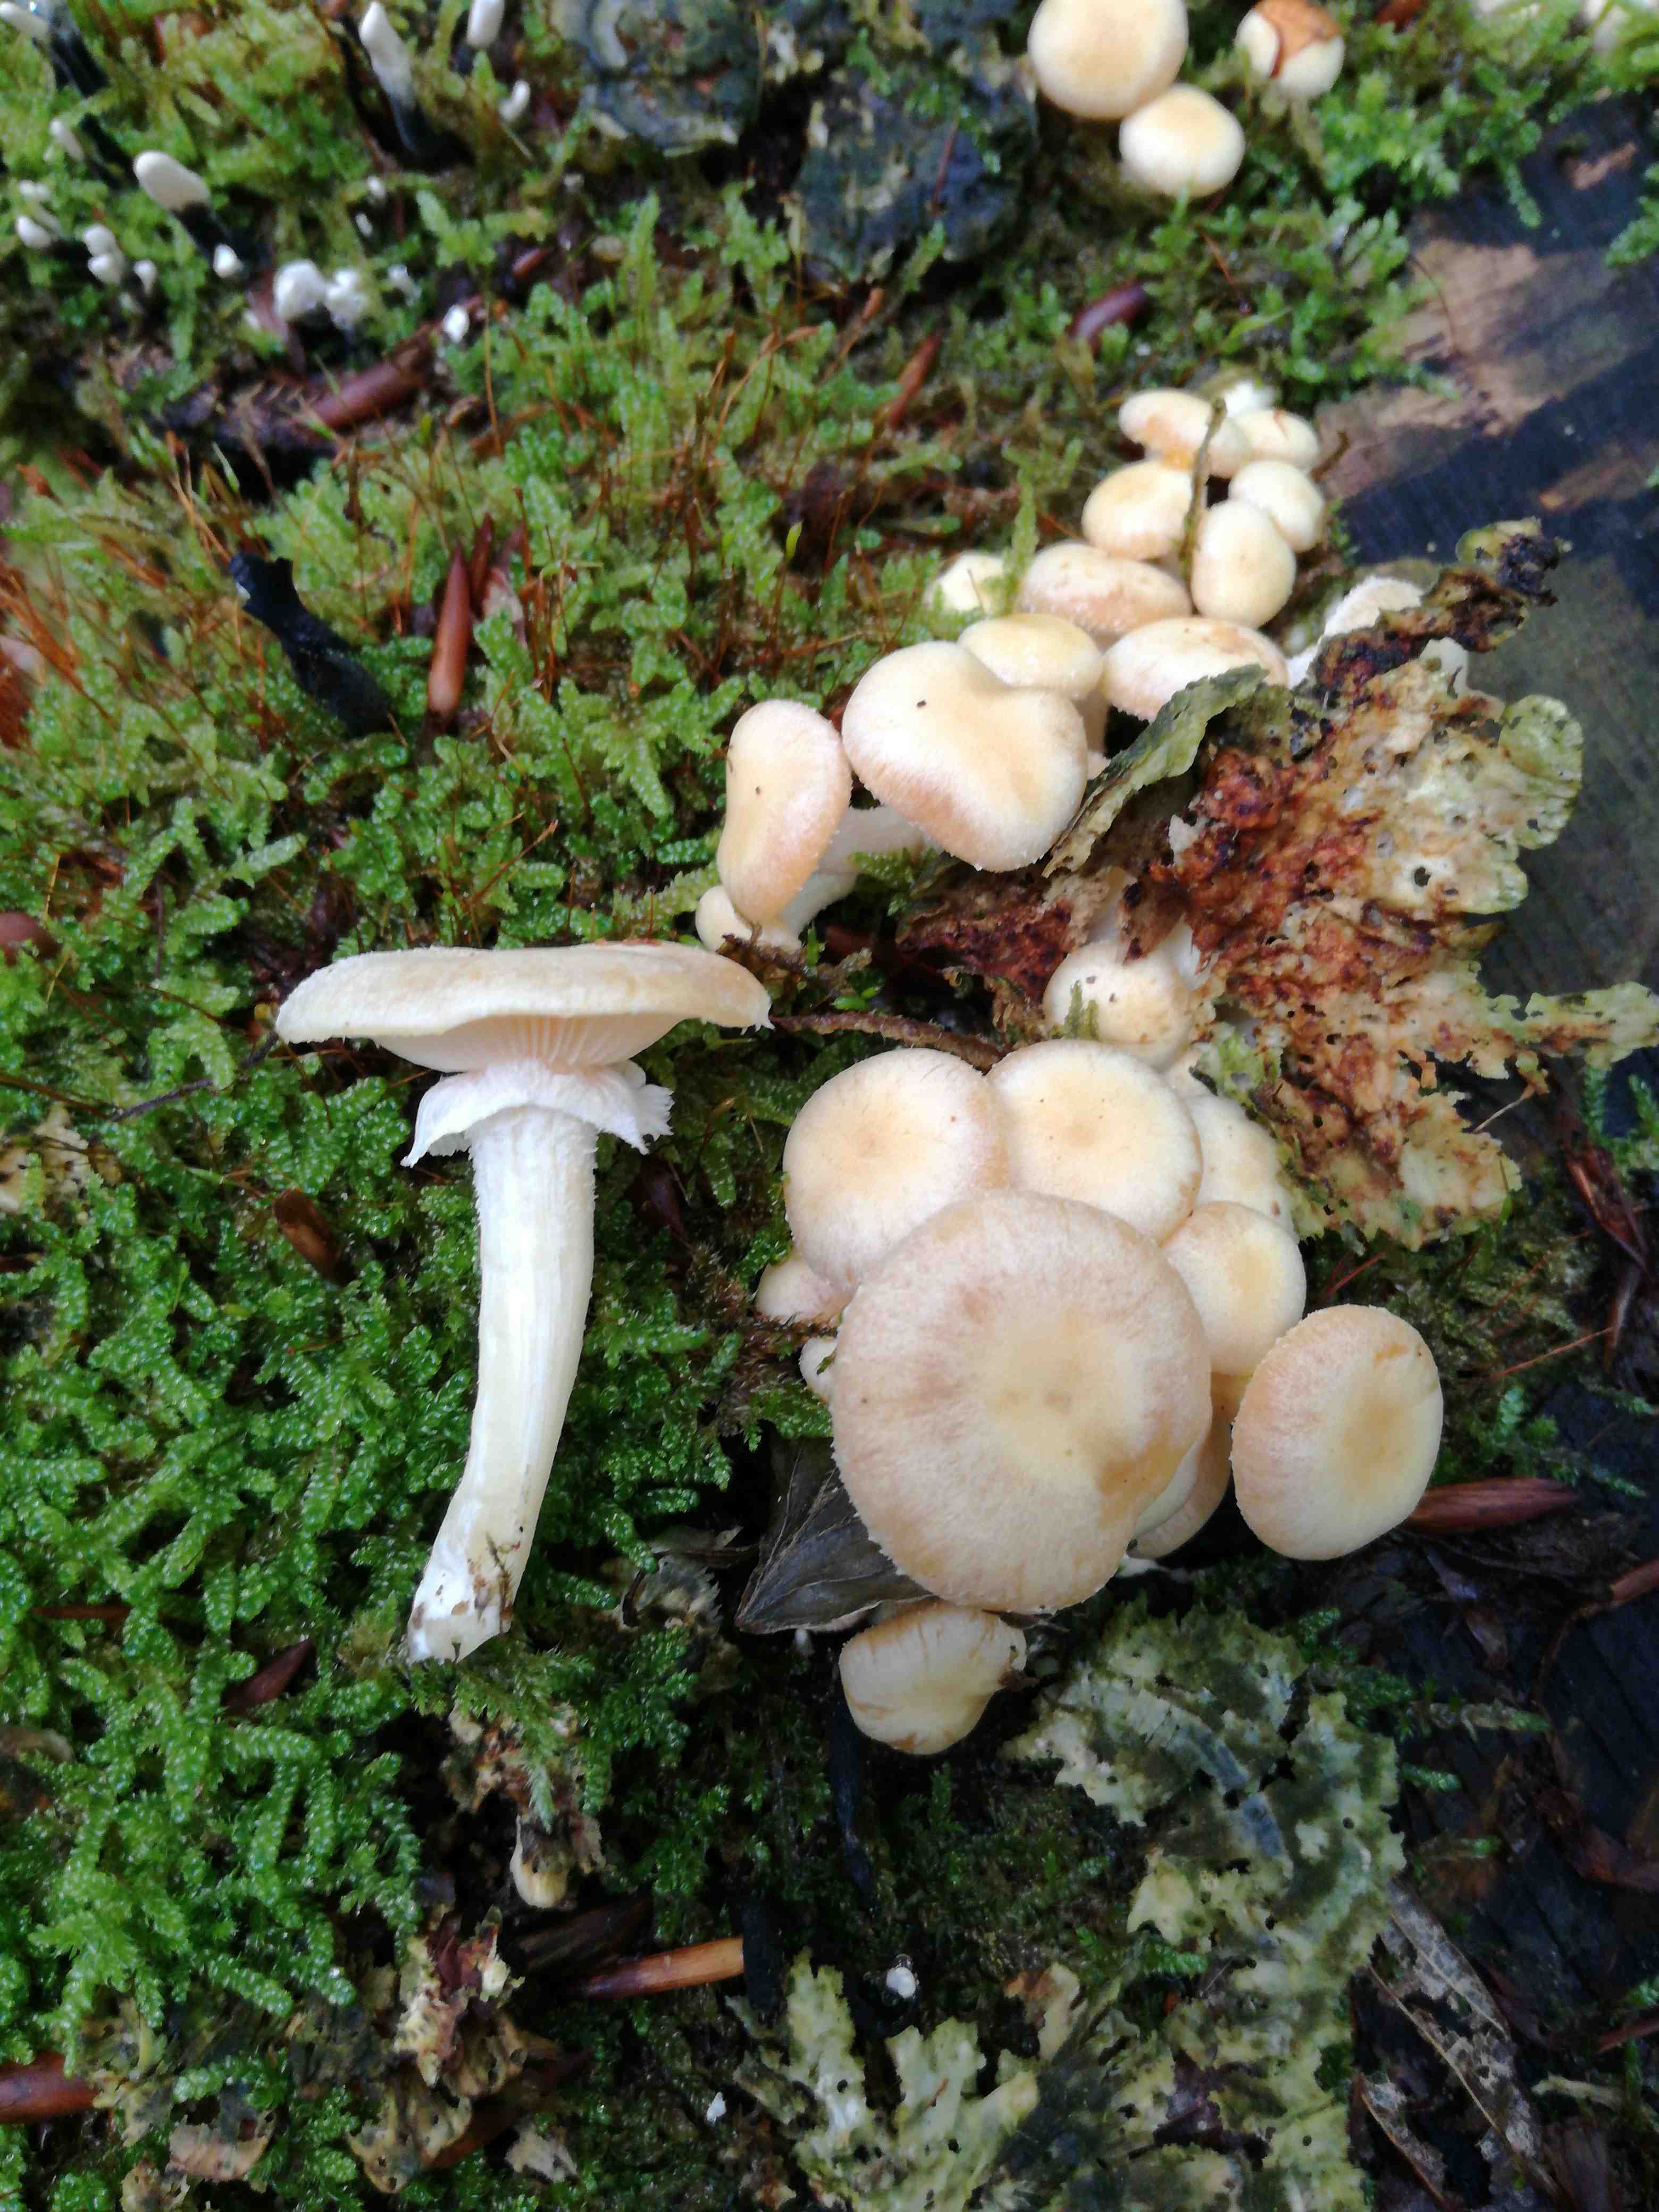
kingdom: Fungi
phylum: Basidiomycota
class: Agaricomycetes
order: Agaricales
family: Physalacriaceae
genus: Armillaria
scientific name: Armillaria
